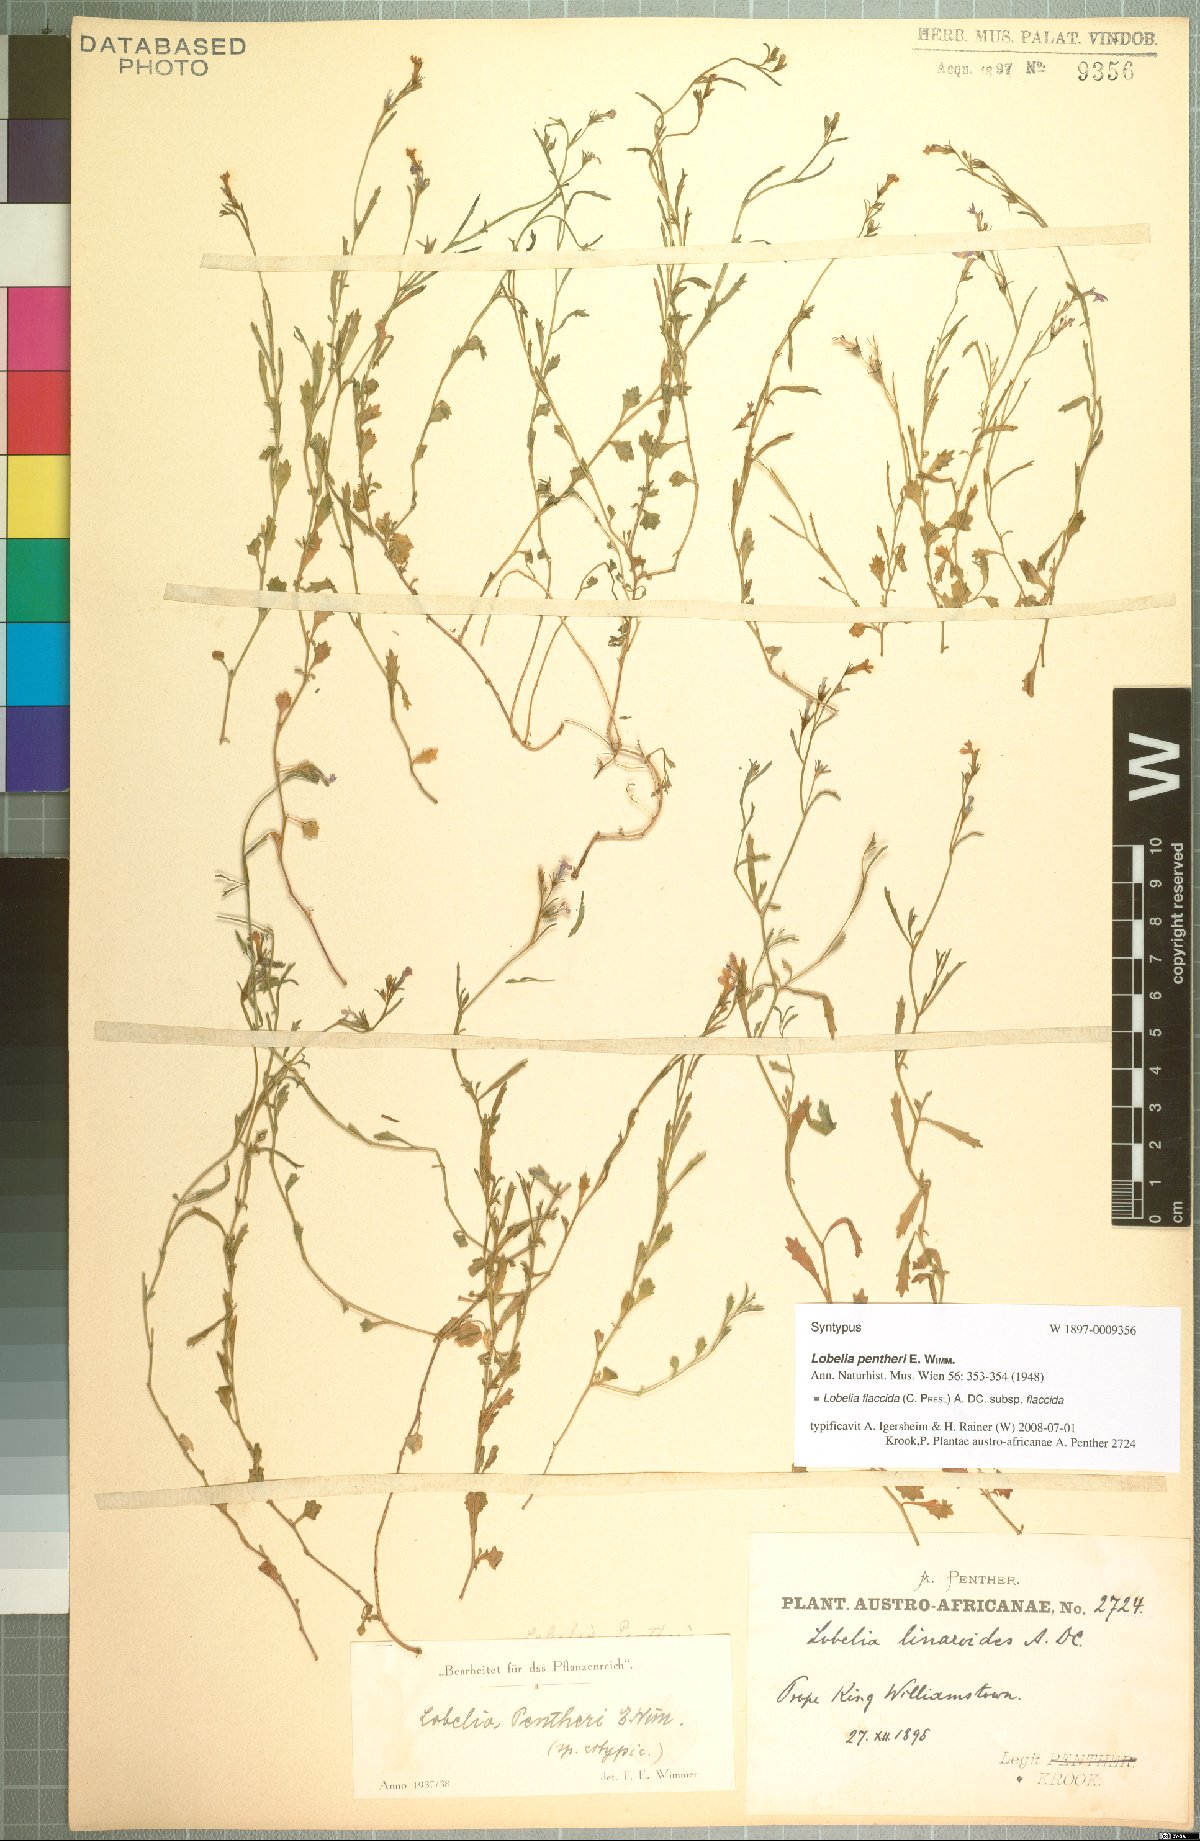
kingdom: Plantae
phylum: Tracheophyta
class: Magnoliopsida
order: Asterales
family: Campanulaceae
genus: Lobelia
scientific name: Lobelia flaccida
